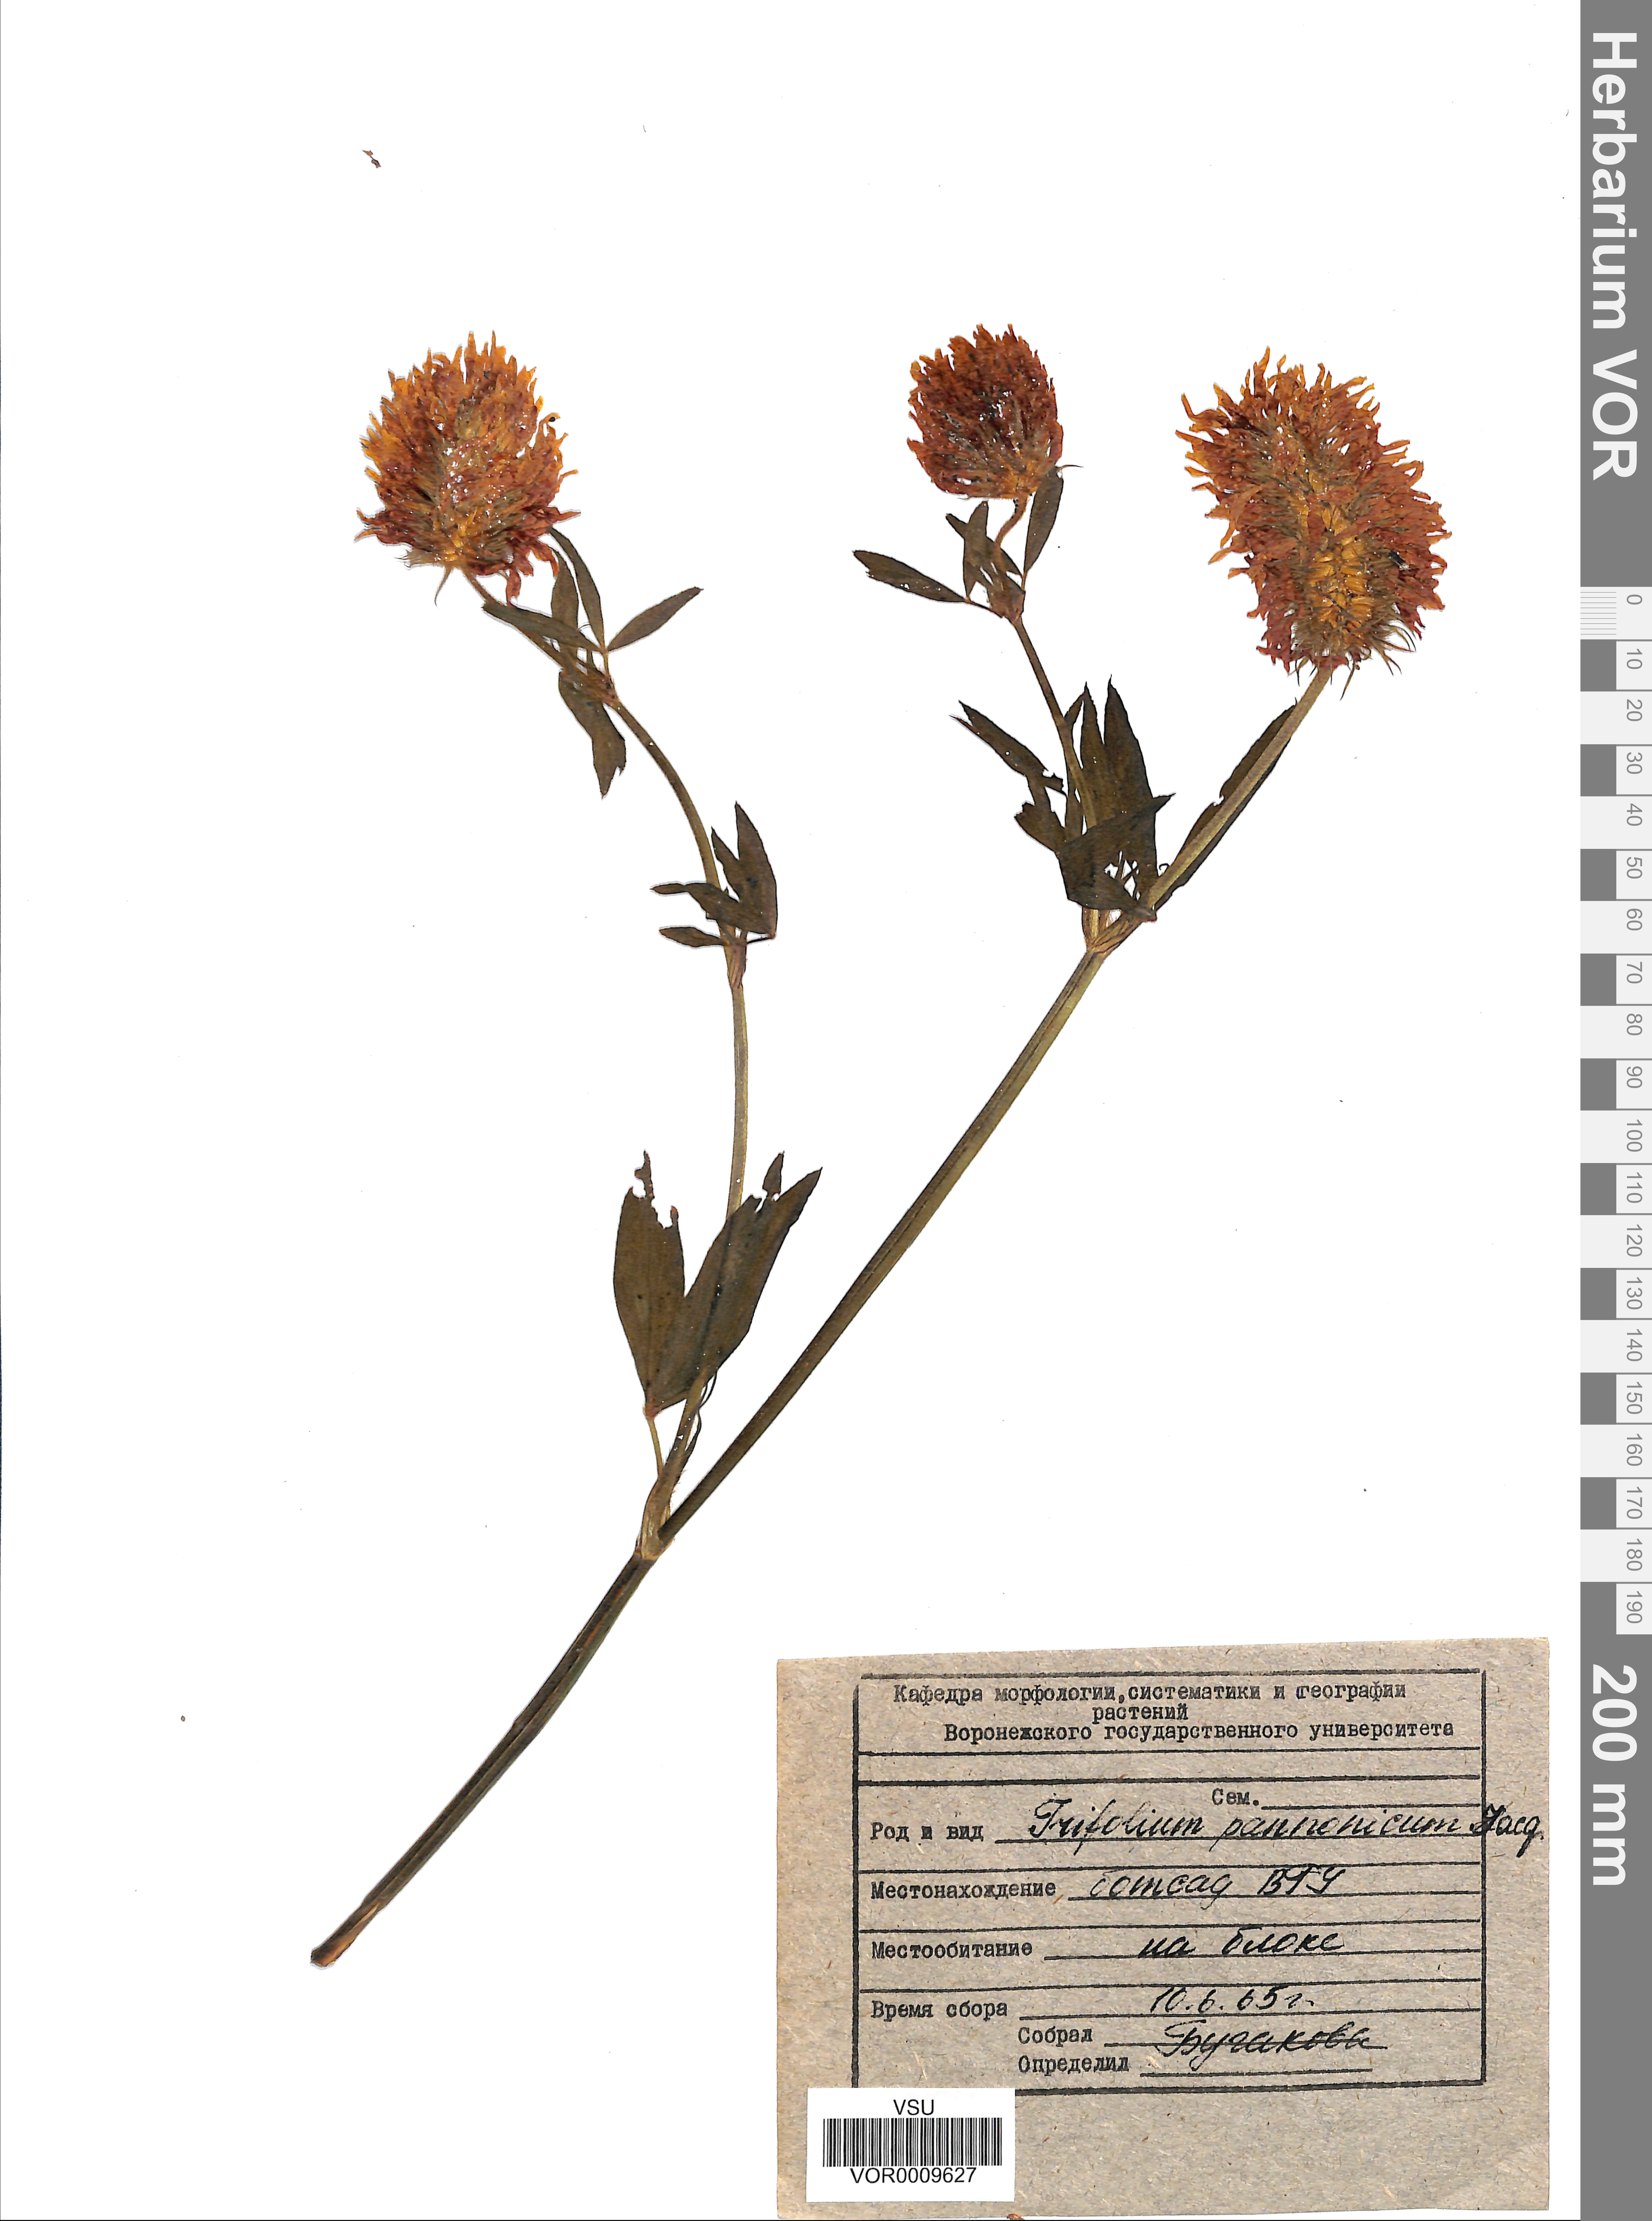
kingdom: Plantae
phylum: Tracheophyta
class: Magnoliopsida
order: Fabales
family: Fabaceae
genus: Trifolium
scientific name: Trifolium pannonicum
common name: Hungarian clover
